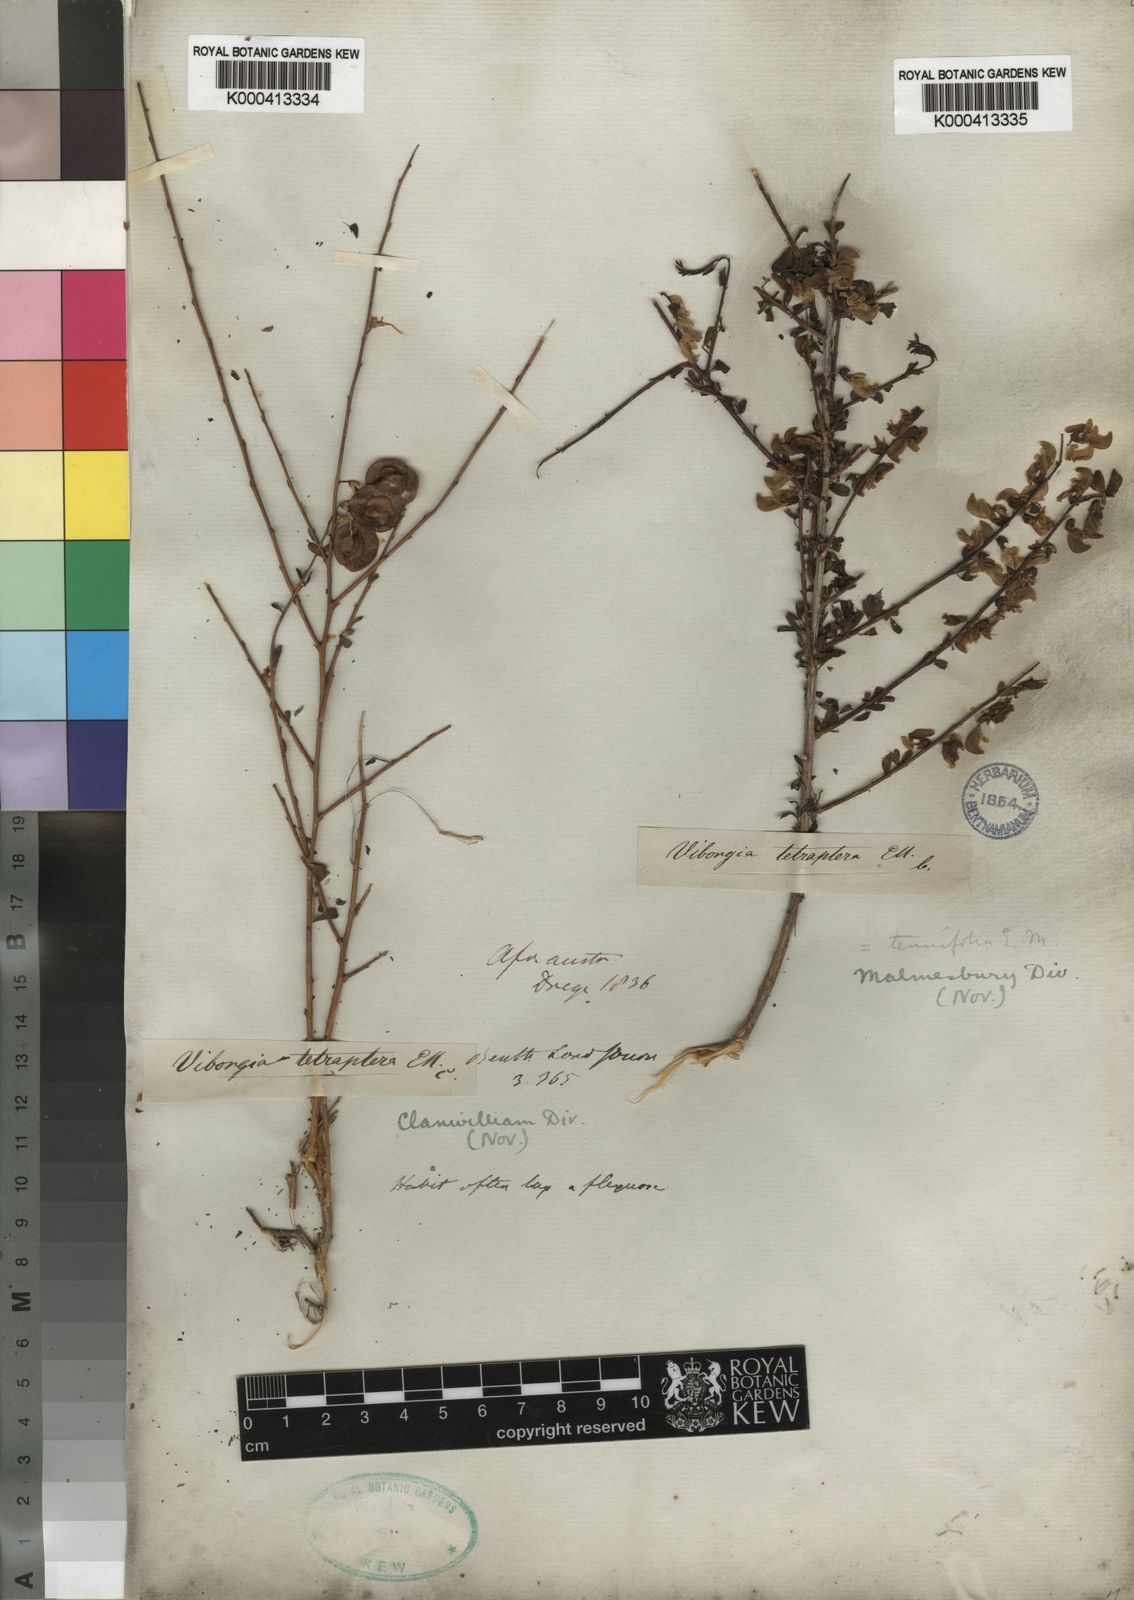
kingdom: Plantae
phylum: Tracheophyta
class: Magnoliopsida
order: Fabales
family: Fabaceae
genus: Wiborgia
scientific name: Wiborgia tetraptera
